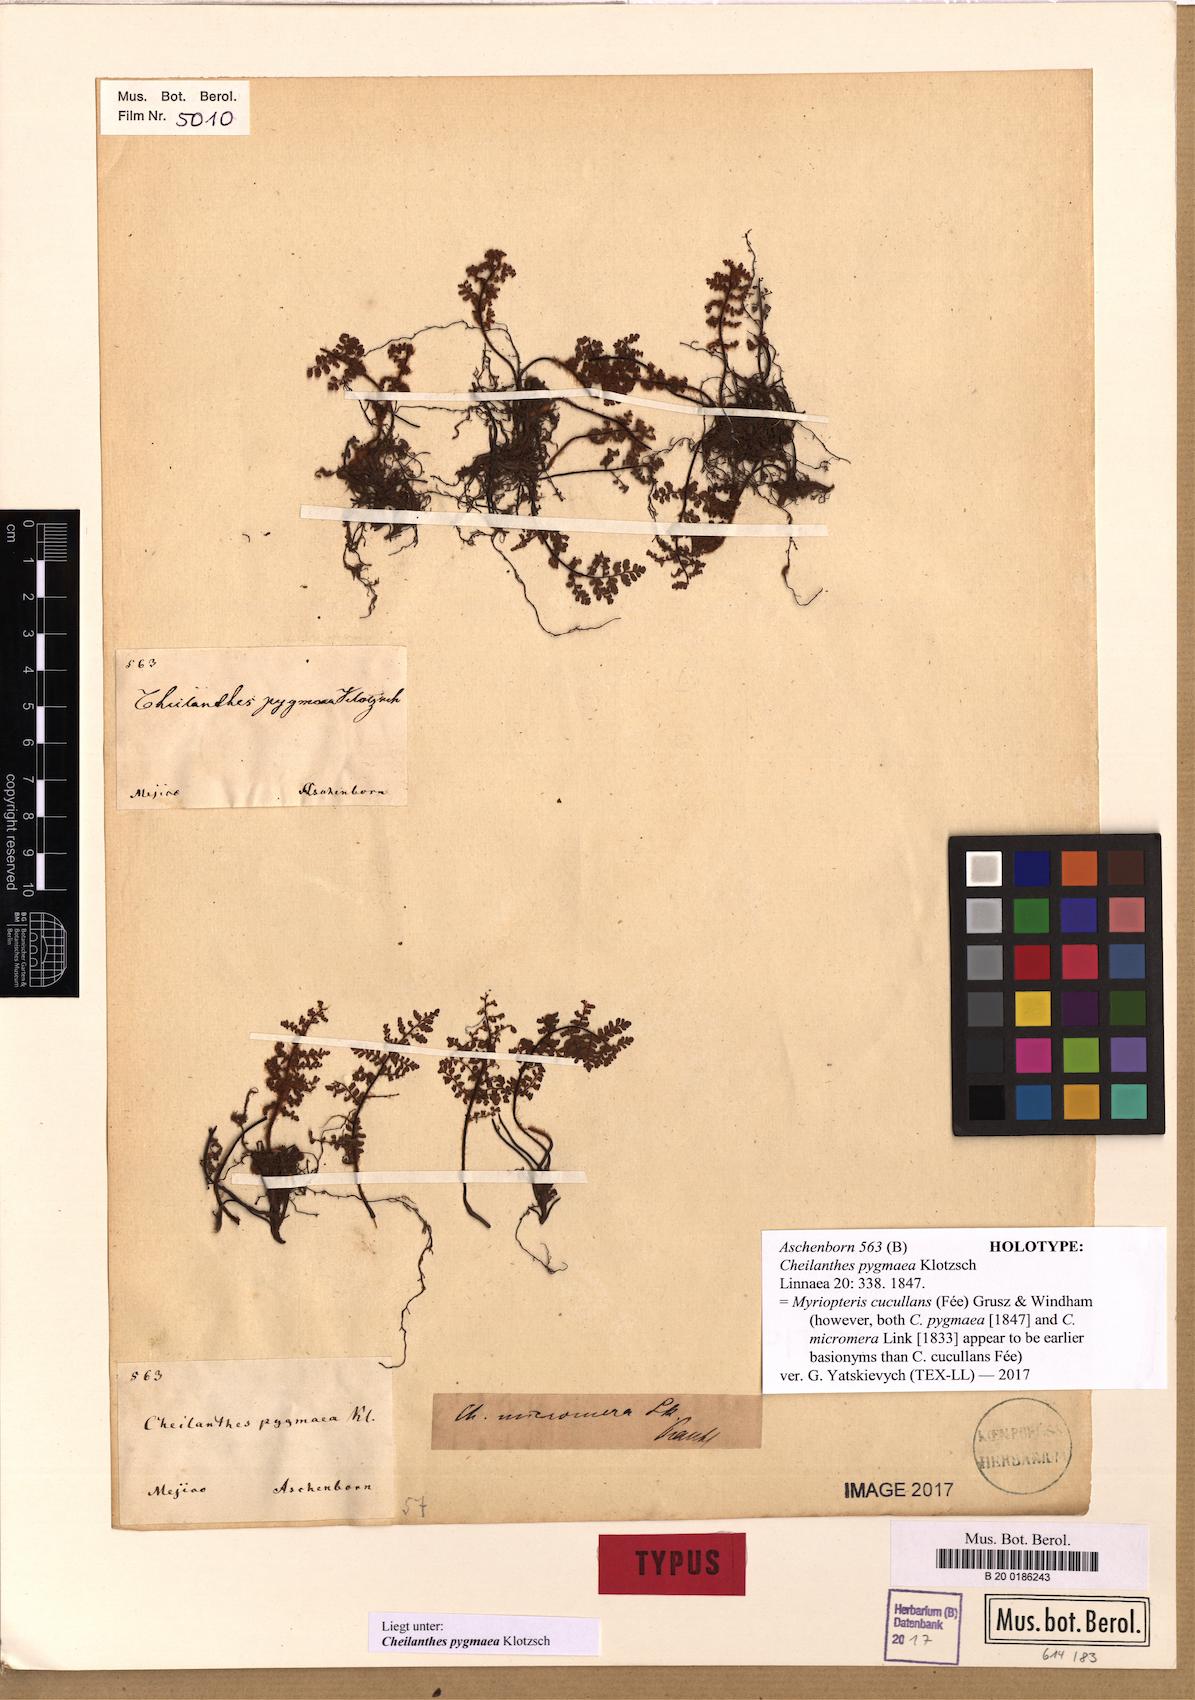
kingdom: Plantae
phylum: Tracheophyta
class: Polypodiopsida
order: Polypodiales
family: Pteridaceae
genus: Myriopteris
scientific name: Myriopteris microphylla
